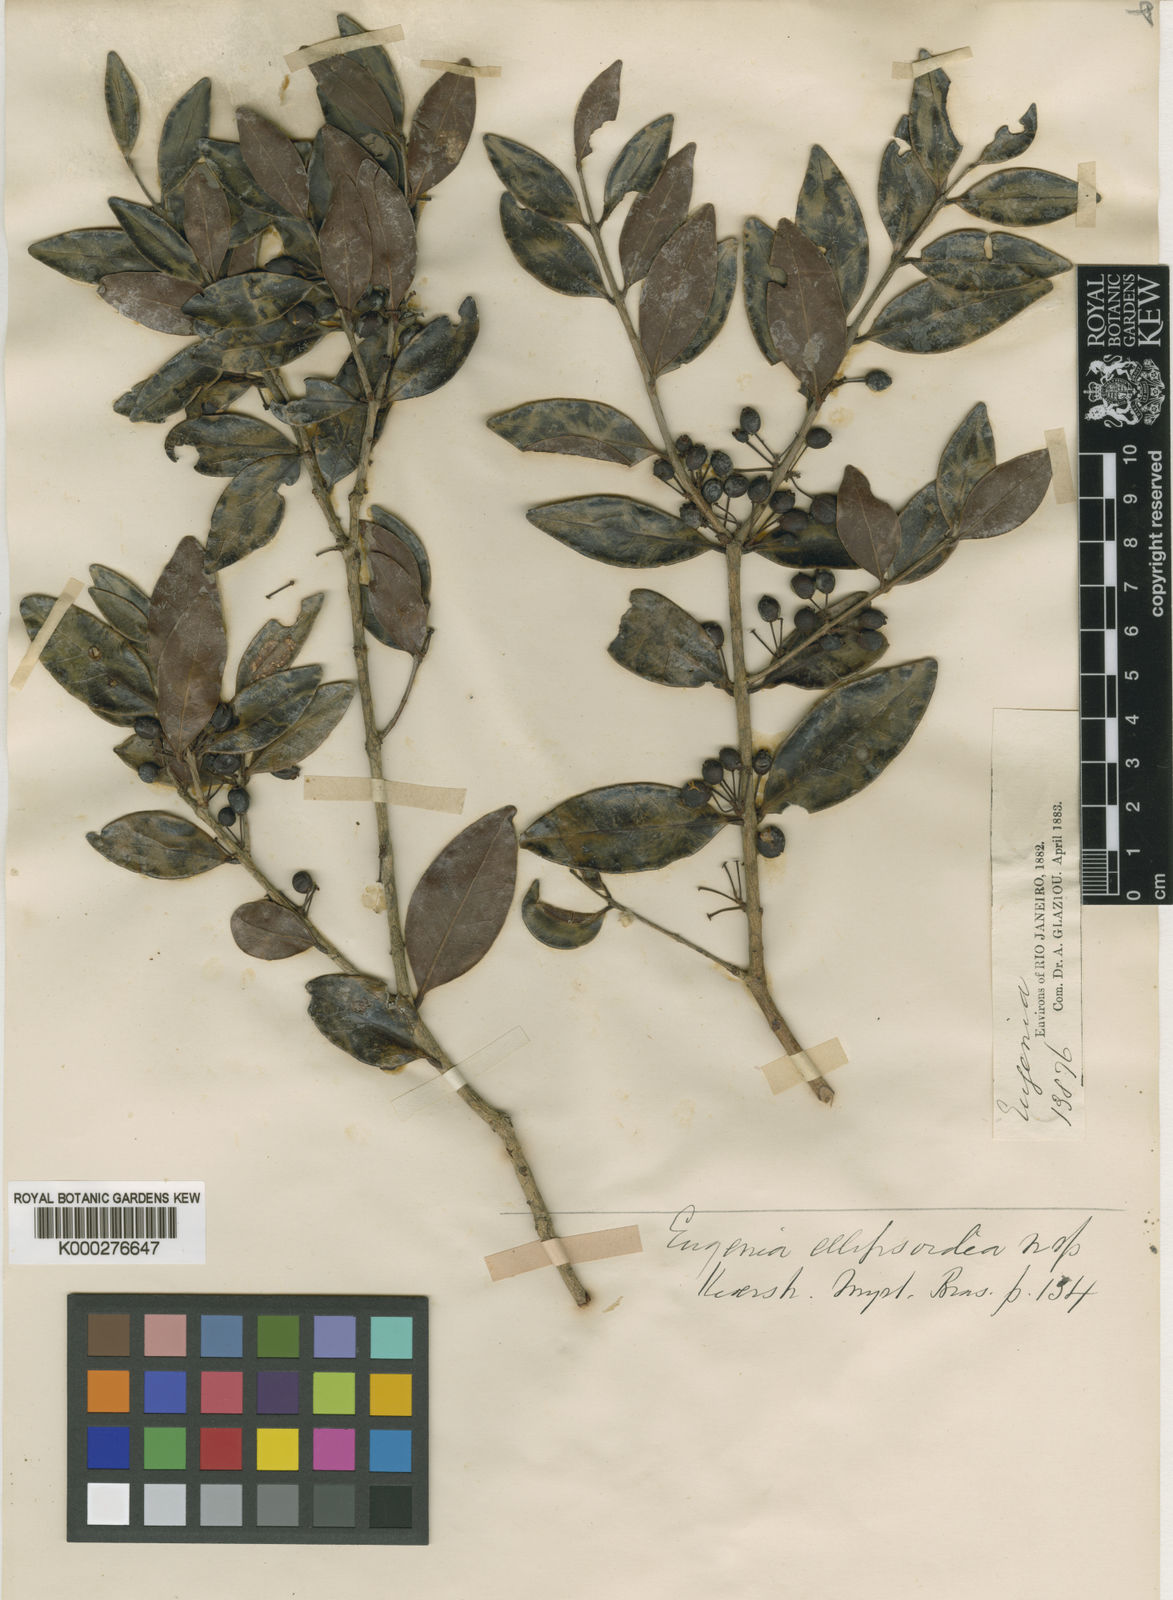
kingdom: Plantae
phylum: Tracheophyta
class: Magnoliopsida
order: Myrtales
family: Myrtaceae
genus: Eugenia
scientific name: Eugenia ellipsoidea
